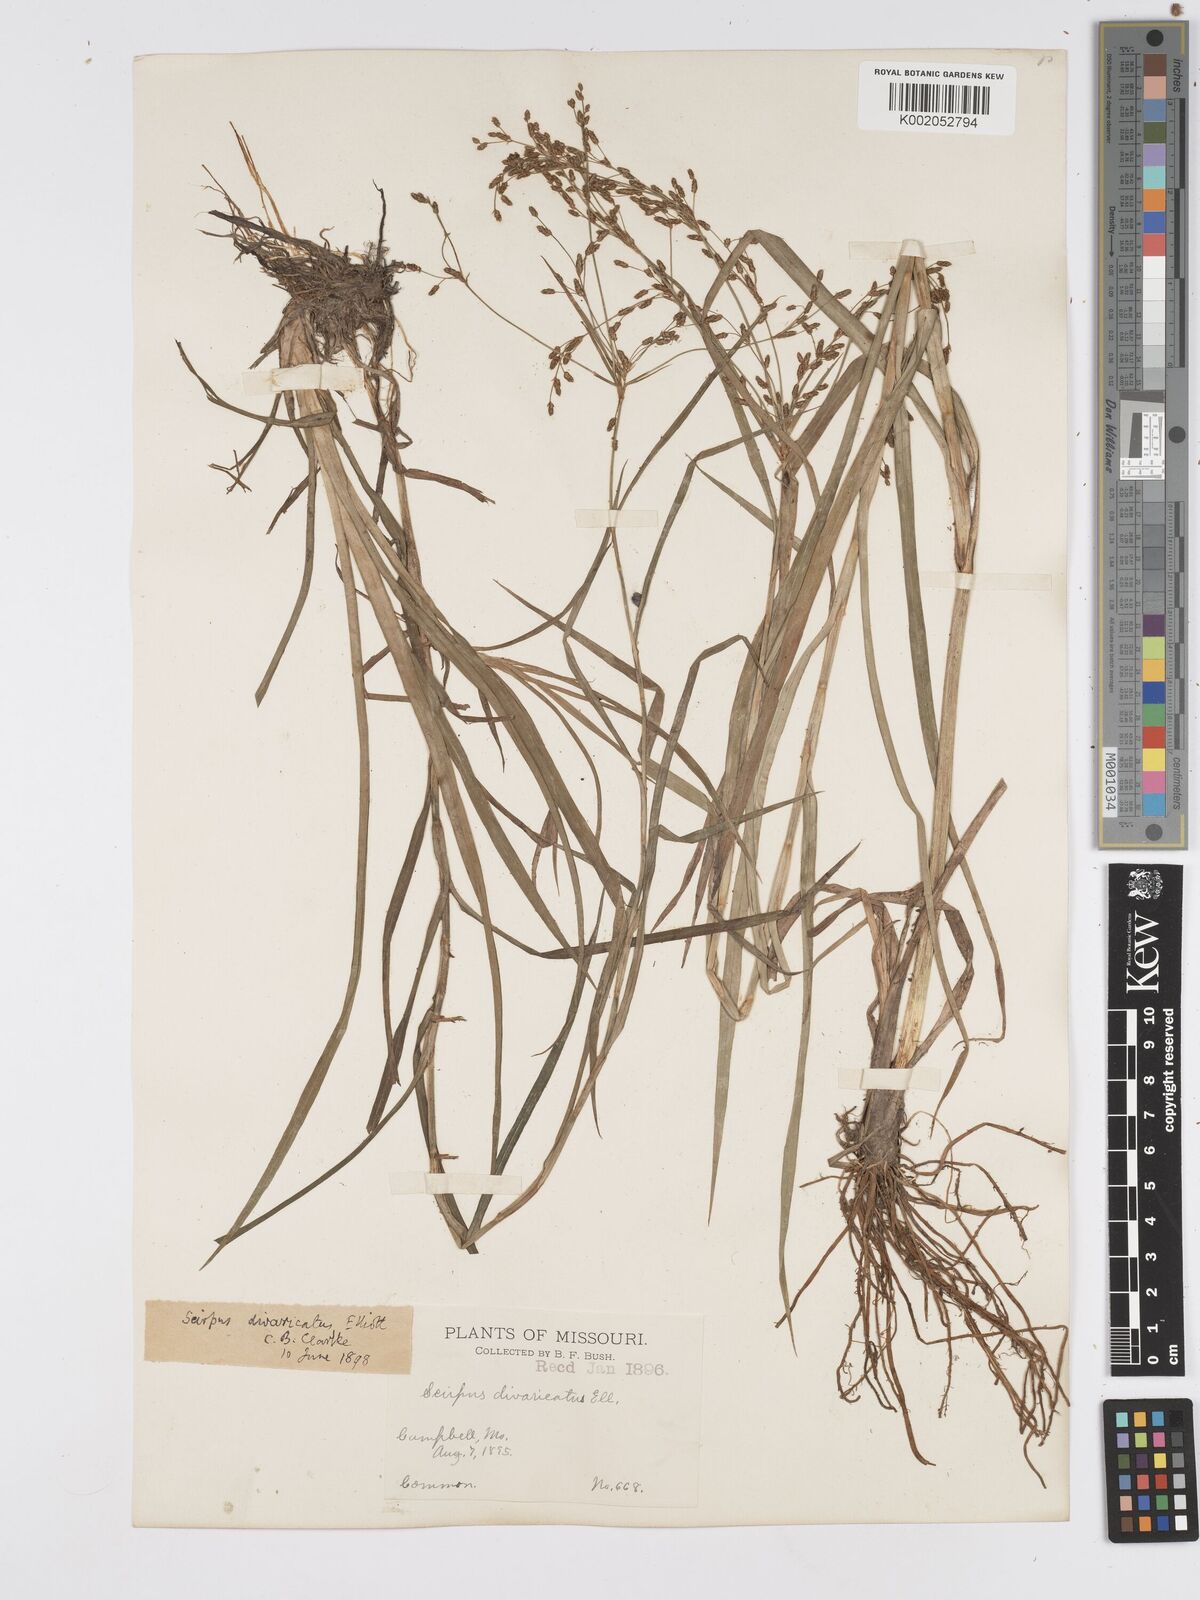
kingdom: Plantae
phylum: Tracheophyta
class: Liliopsida
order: Poales
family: Cyperaceae
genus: Scirpus
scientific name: Scirpus divaricatus
